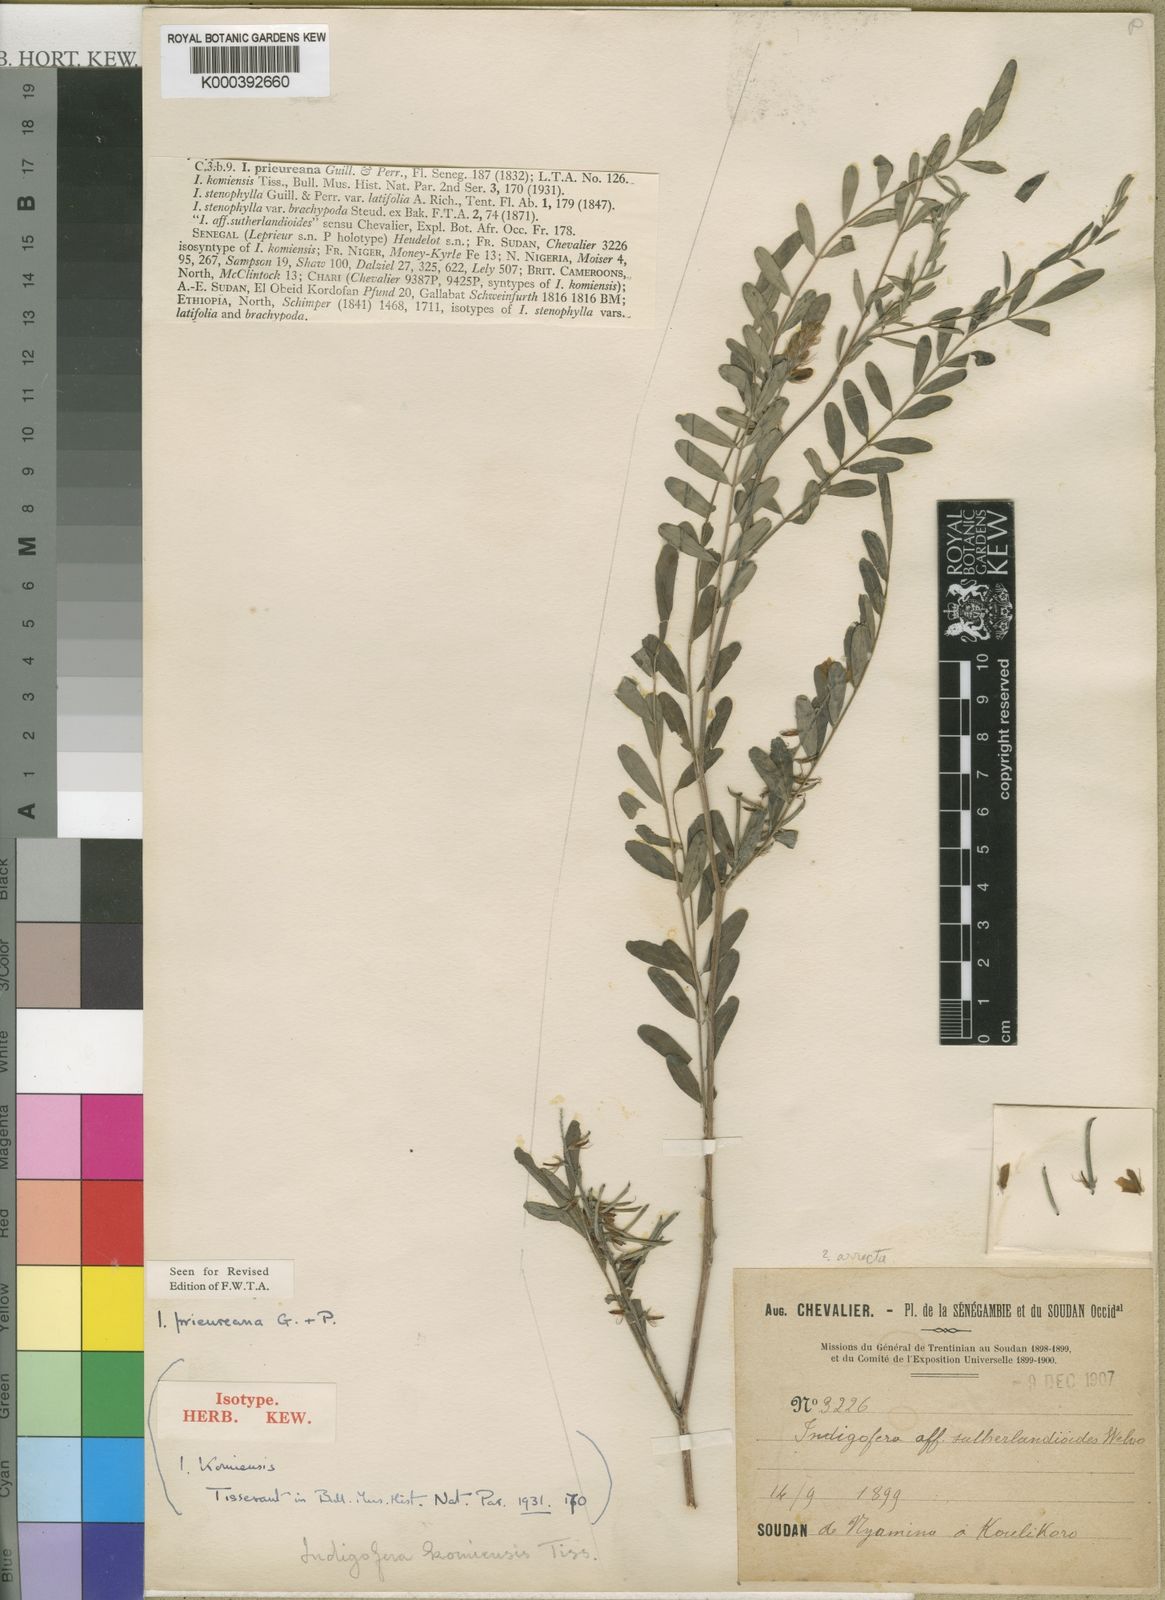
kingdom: Plantae
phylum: Tracheophyta
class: Magnoliopsida
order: Fabales
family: Fabaceae
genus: Indigofera
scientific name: Indigofera prieureana
